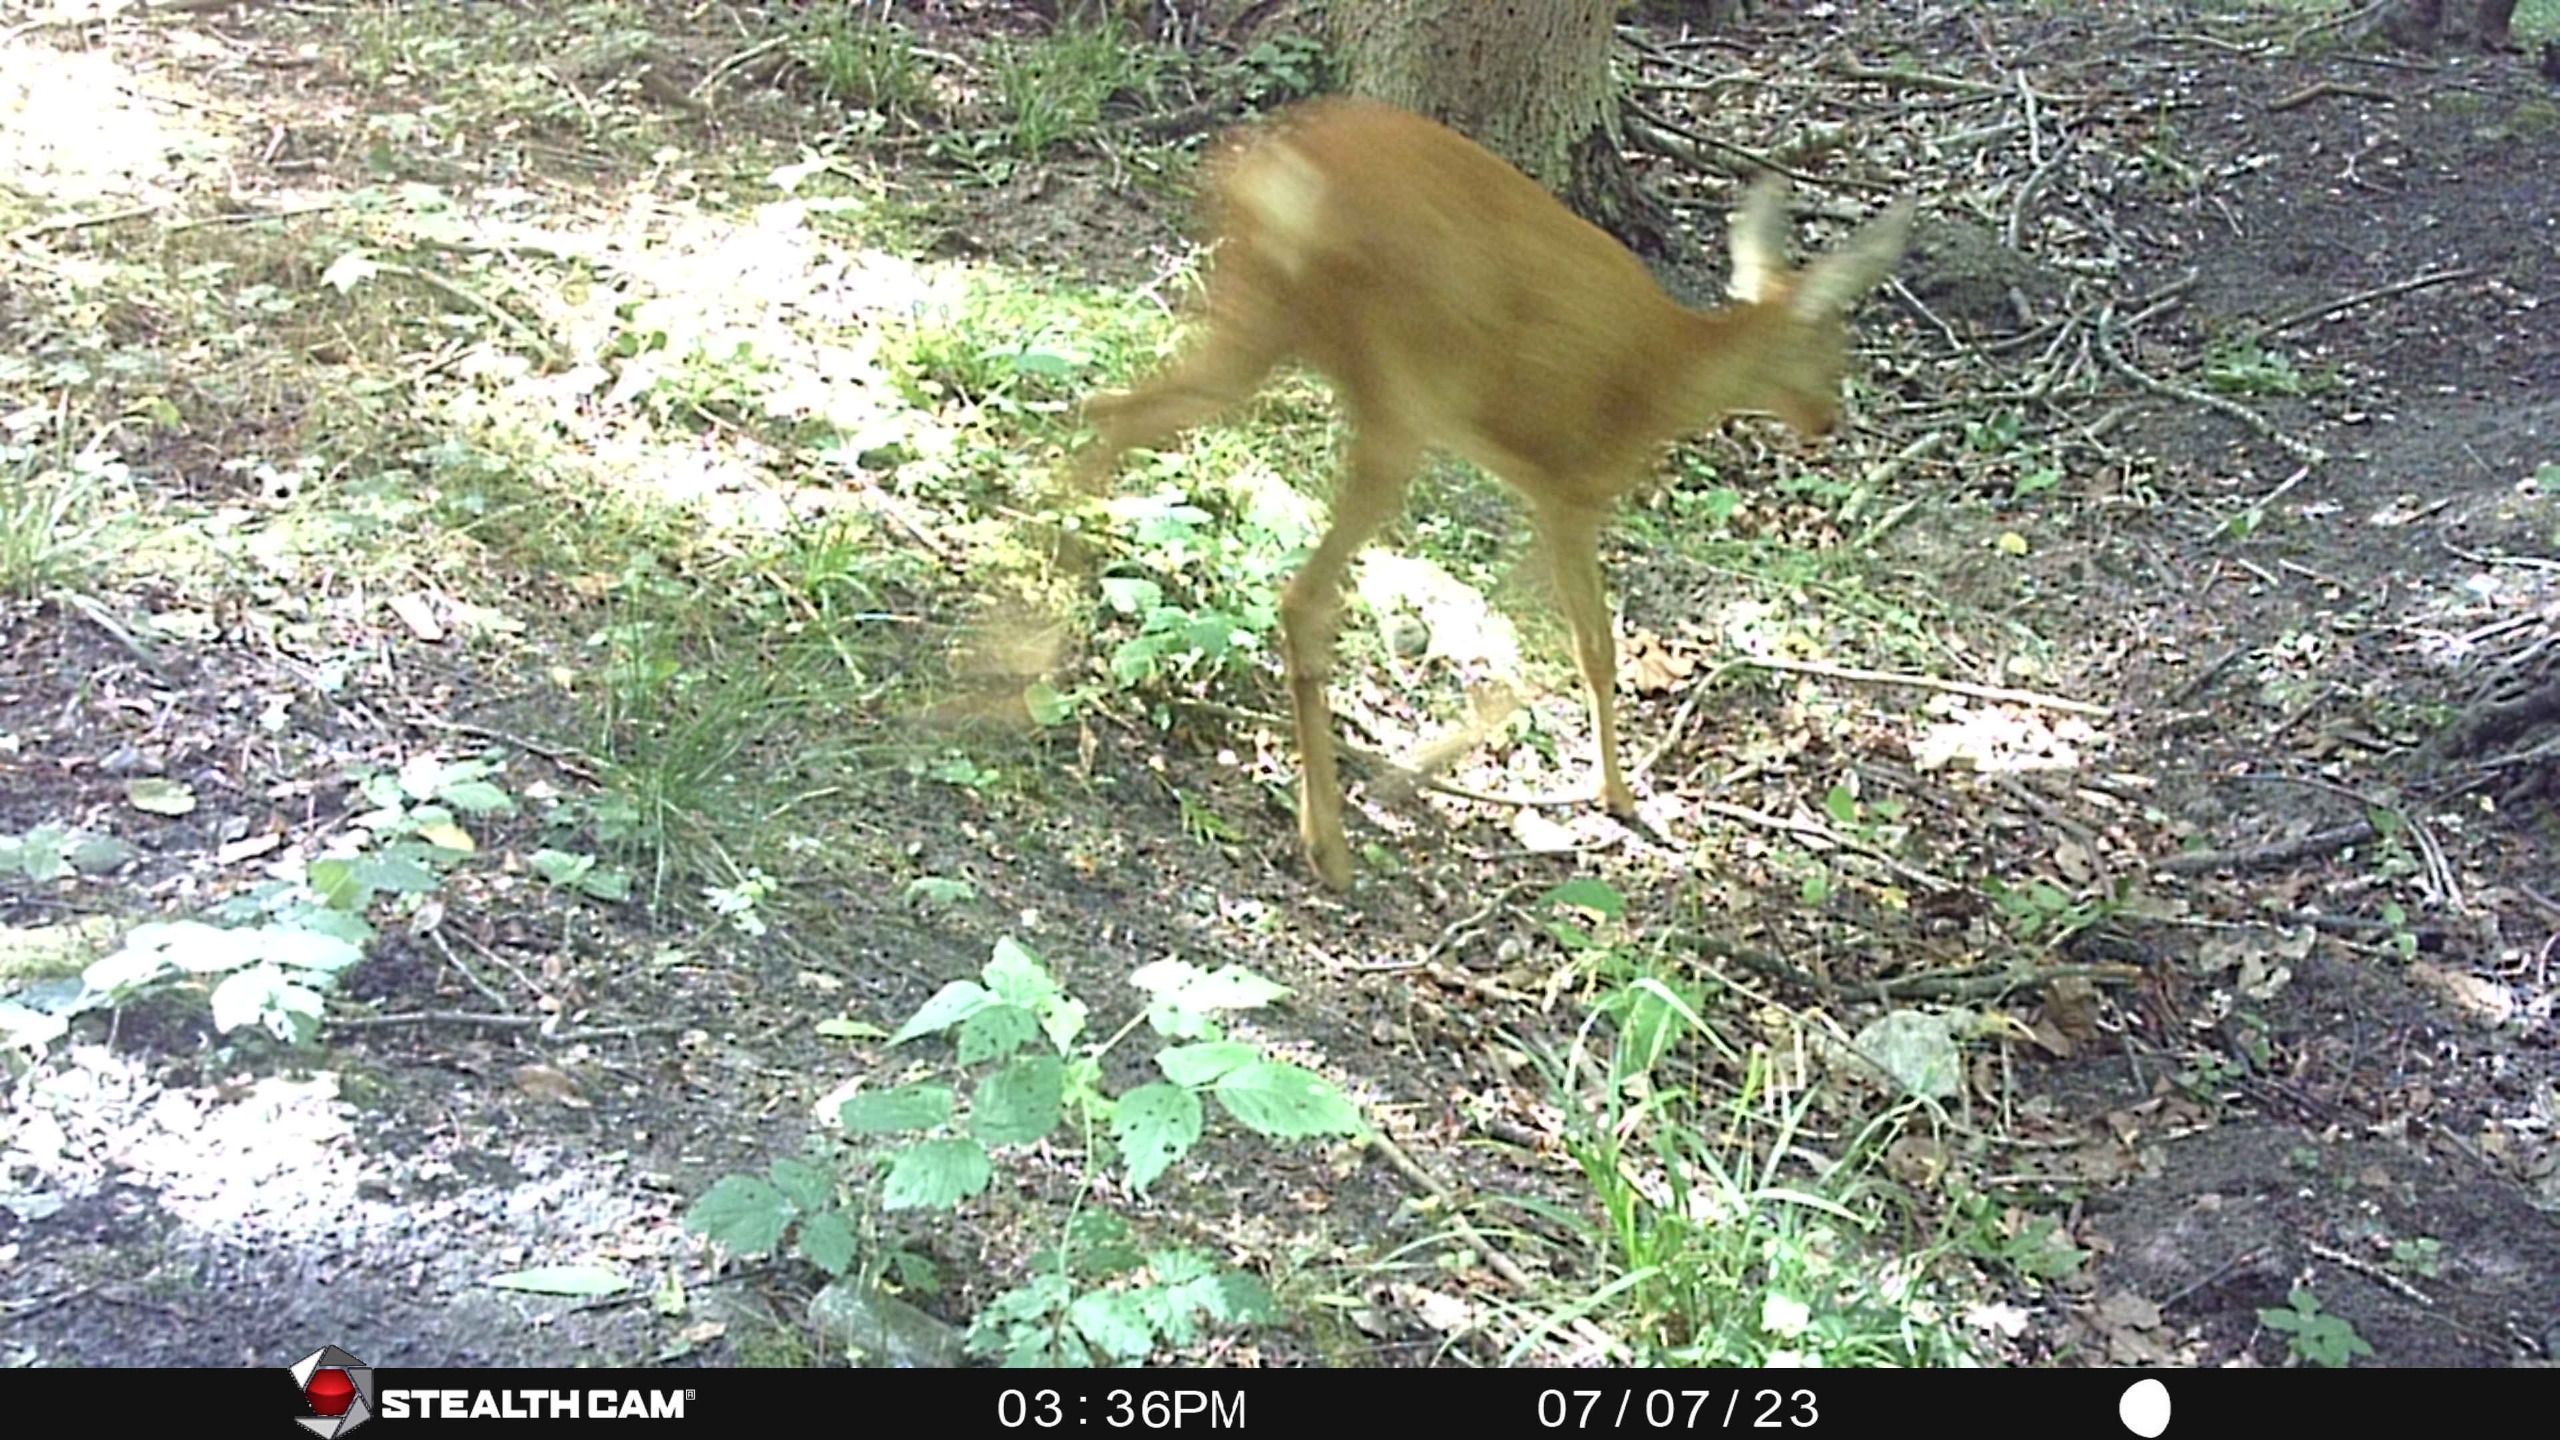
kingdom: Animalia
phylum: Chordata
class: Mammalia
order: Artiodactyla
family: Cervidae
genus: Capreolus
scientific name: Capreolus capreolus
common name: Rådyr
